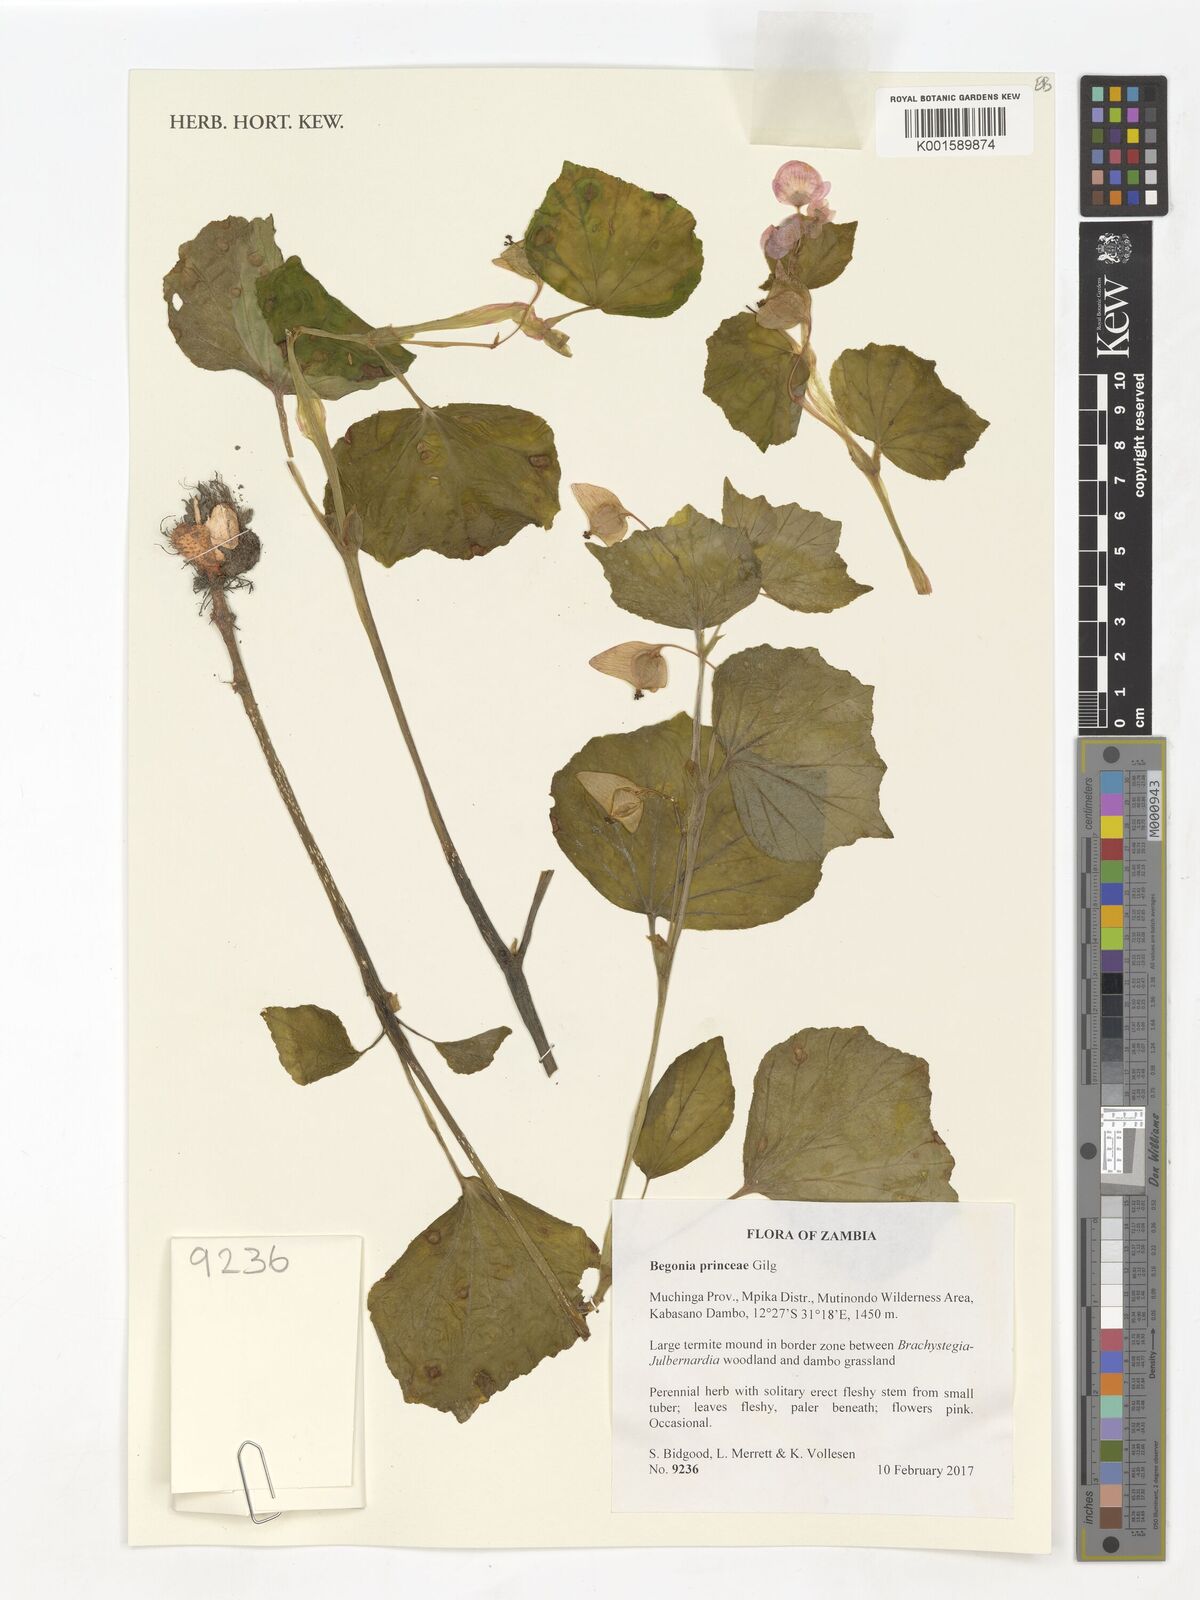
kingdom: Plantae
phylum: Tracheophyta
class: Magnoliopsida
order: Cucurbitales
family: Begoniaceae
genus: Begonia
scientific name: Begonia princeae
